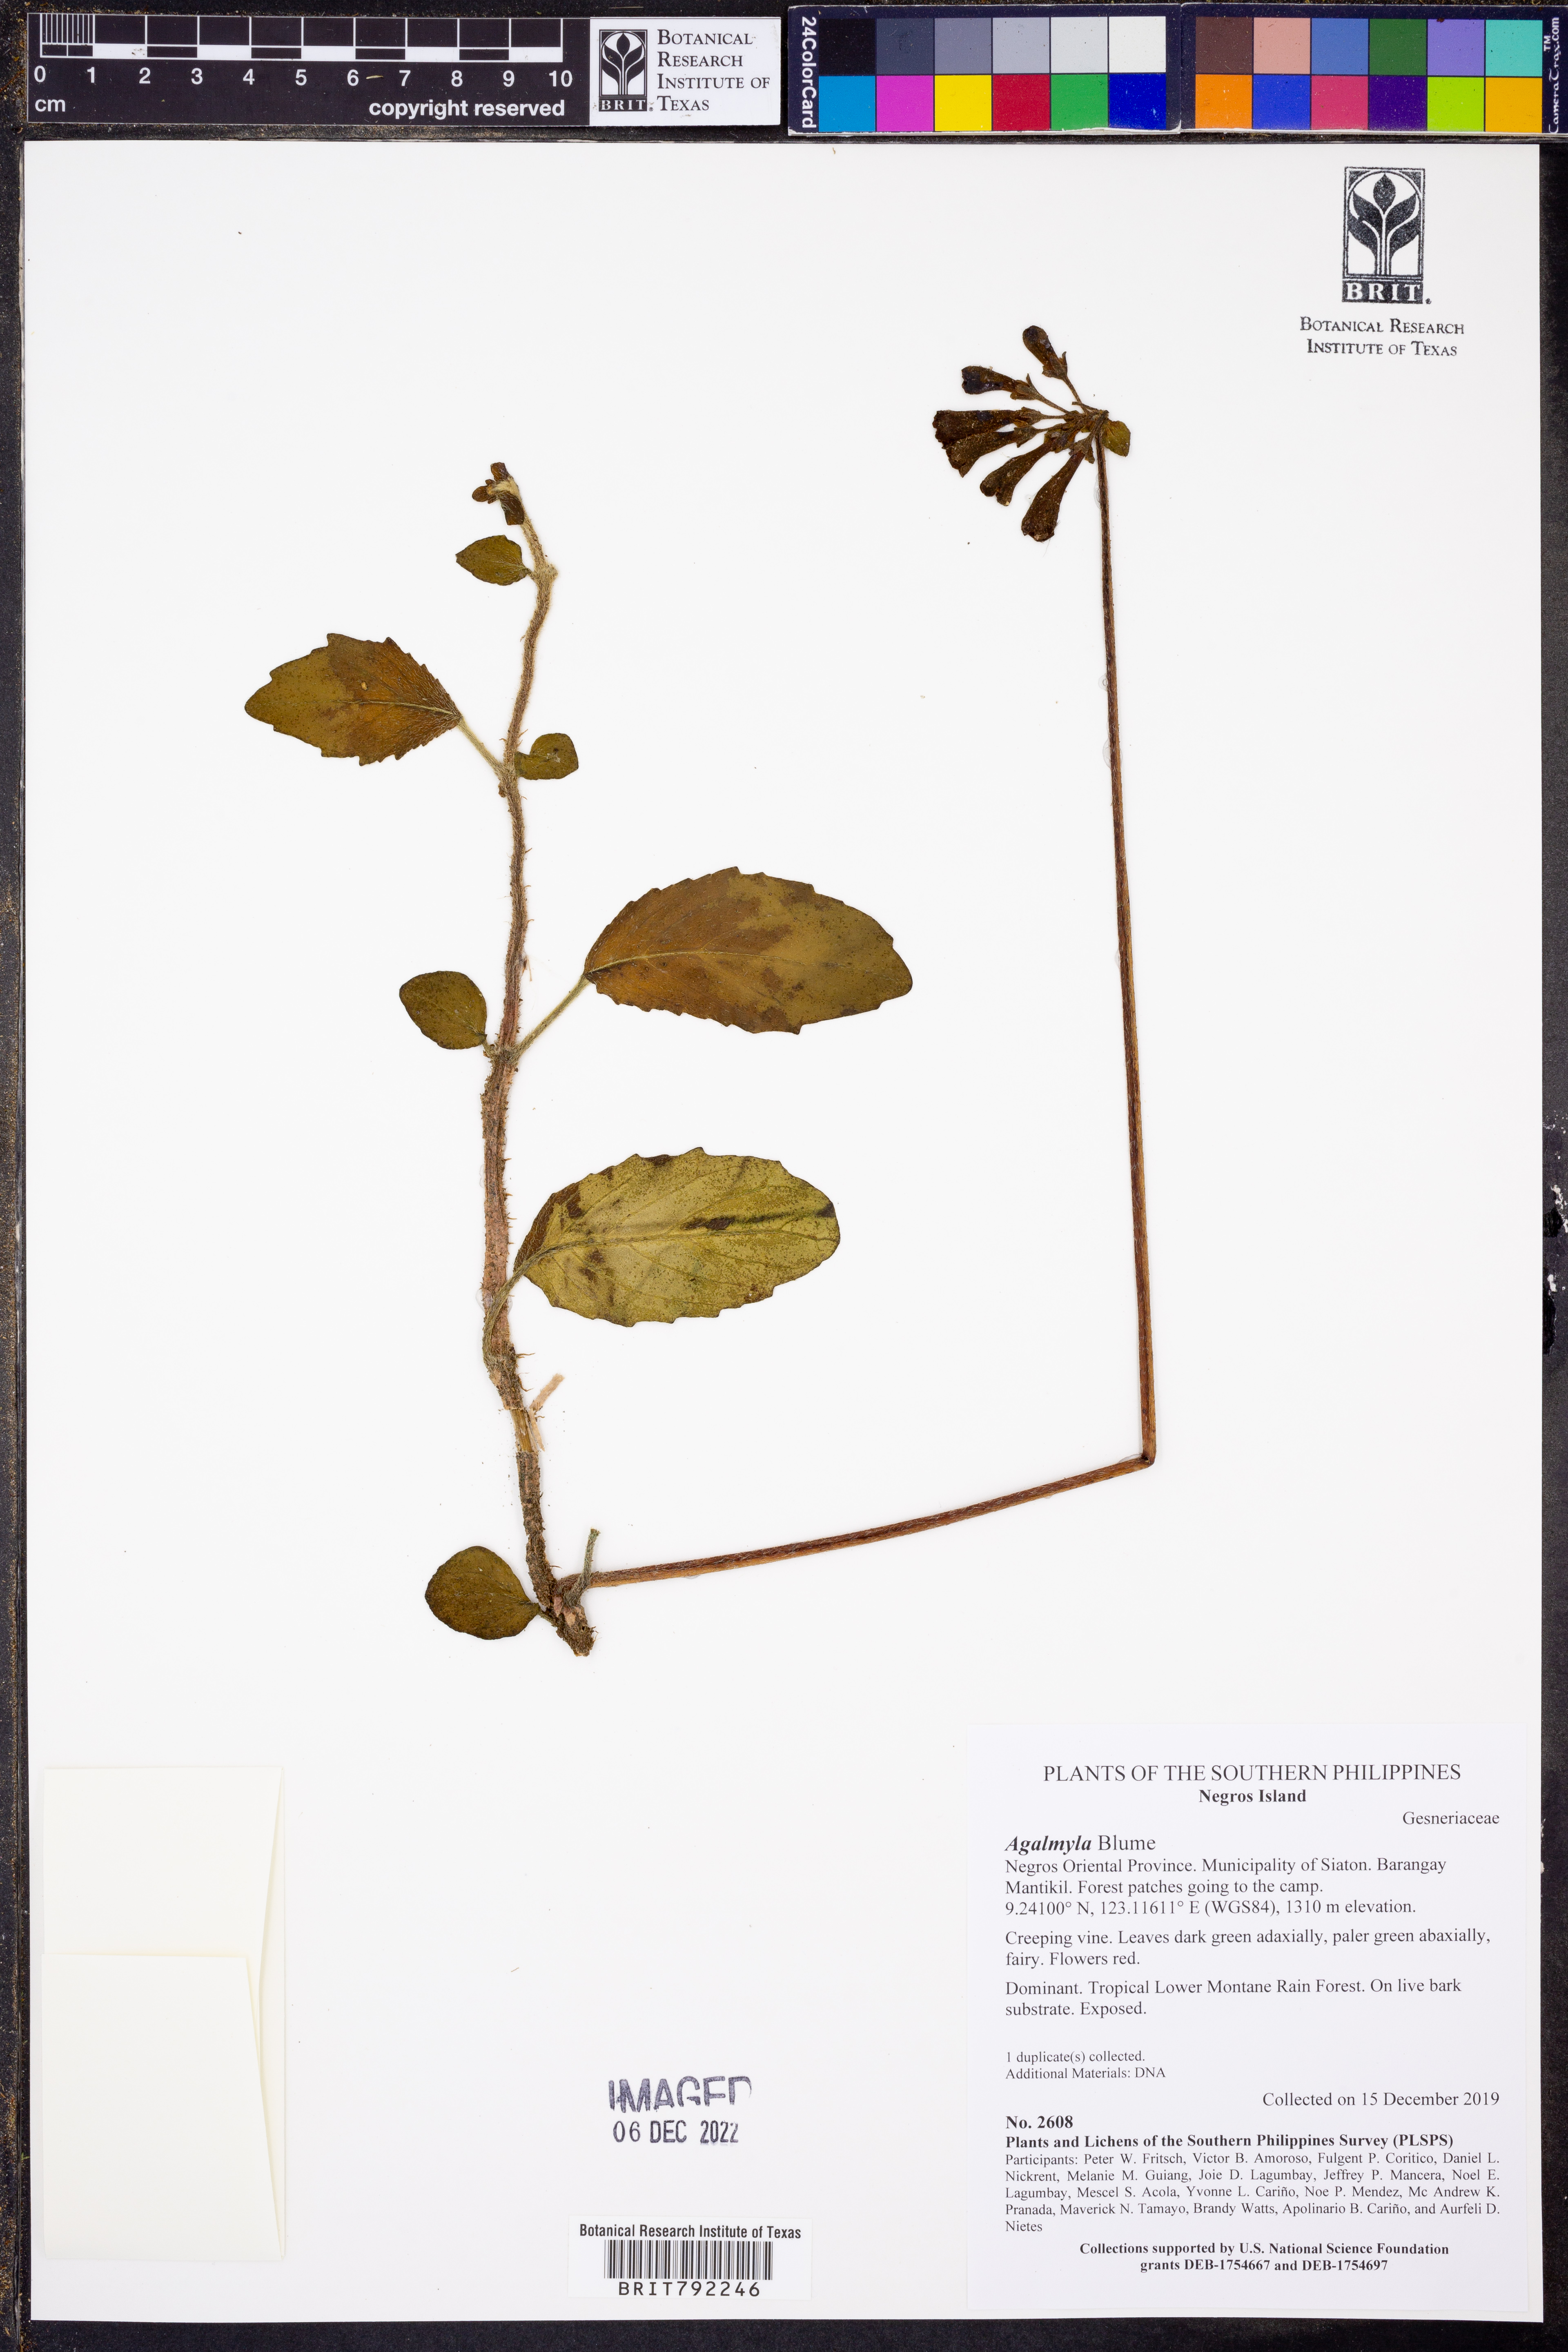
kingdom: Plantae
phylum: Tracheophyta
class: Magnoliopsida
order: Lamiales
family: Gesneriaceae
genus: Agalmyla
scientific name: Agalmyla
